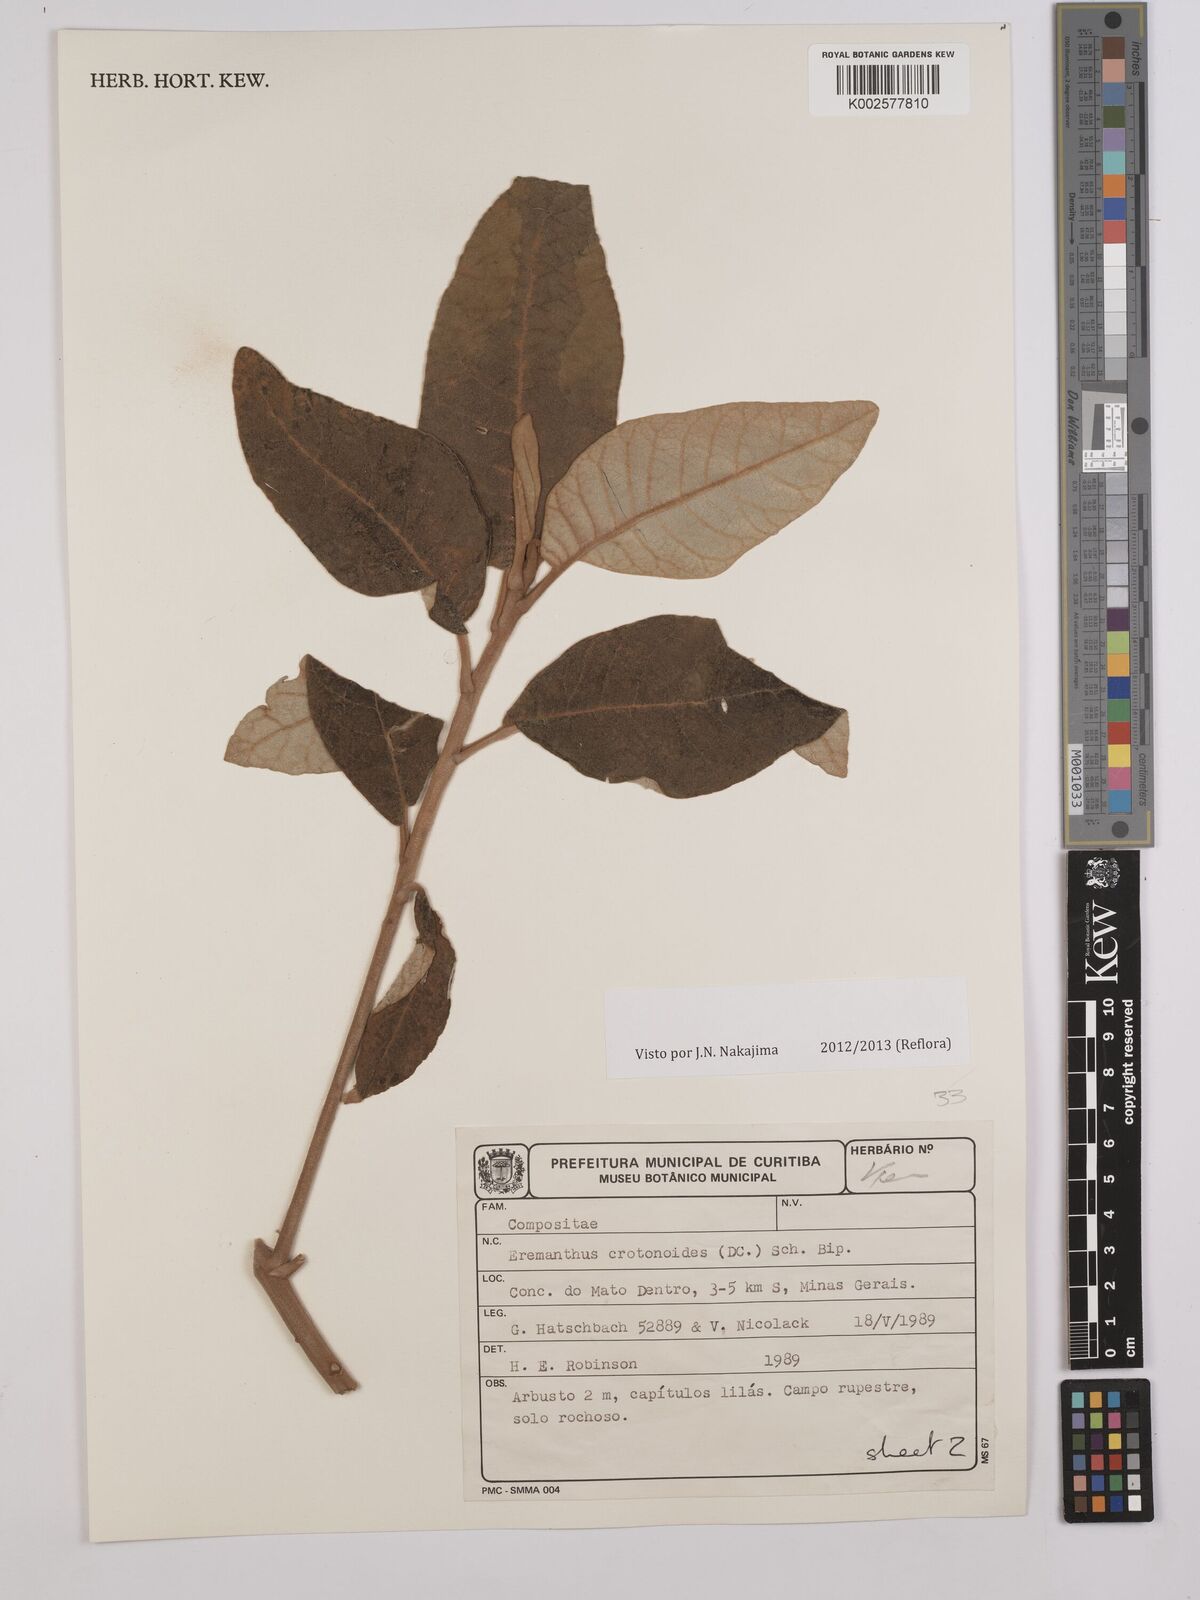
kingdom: Plantae
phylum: Tracheophyta
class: Magnoliopsida
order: Asterales
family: Asteraceae
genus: Eremanthus
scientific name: Eremanthus crotonoides
